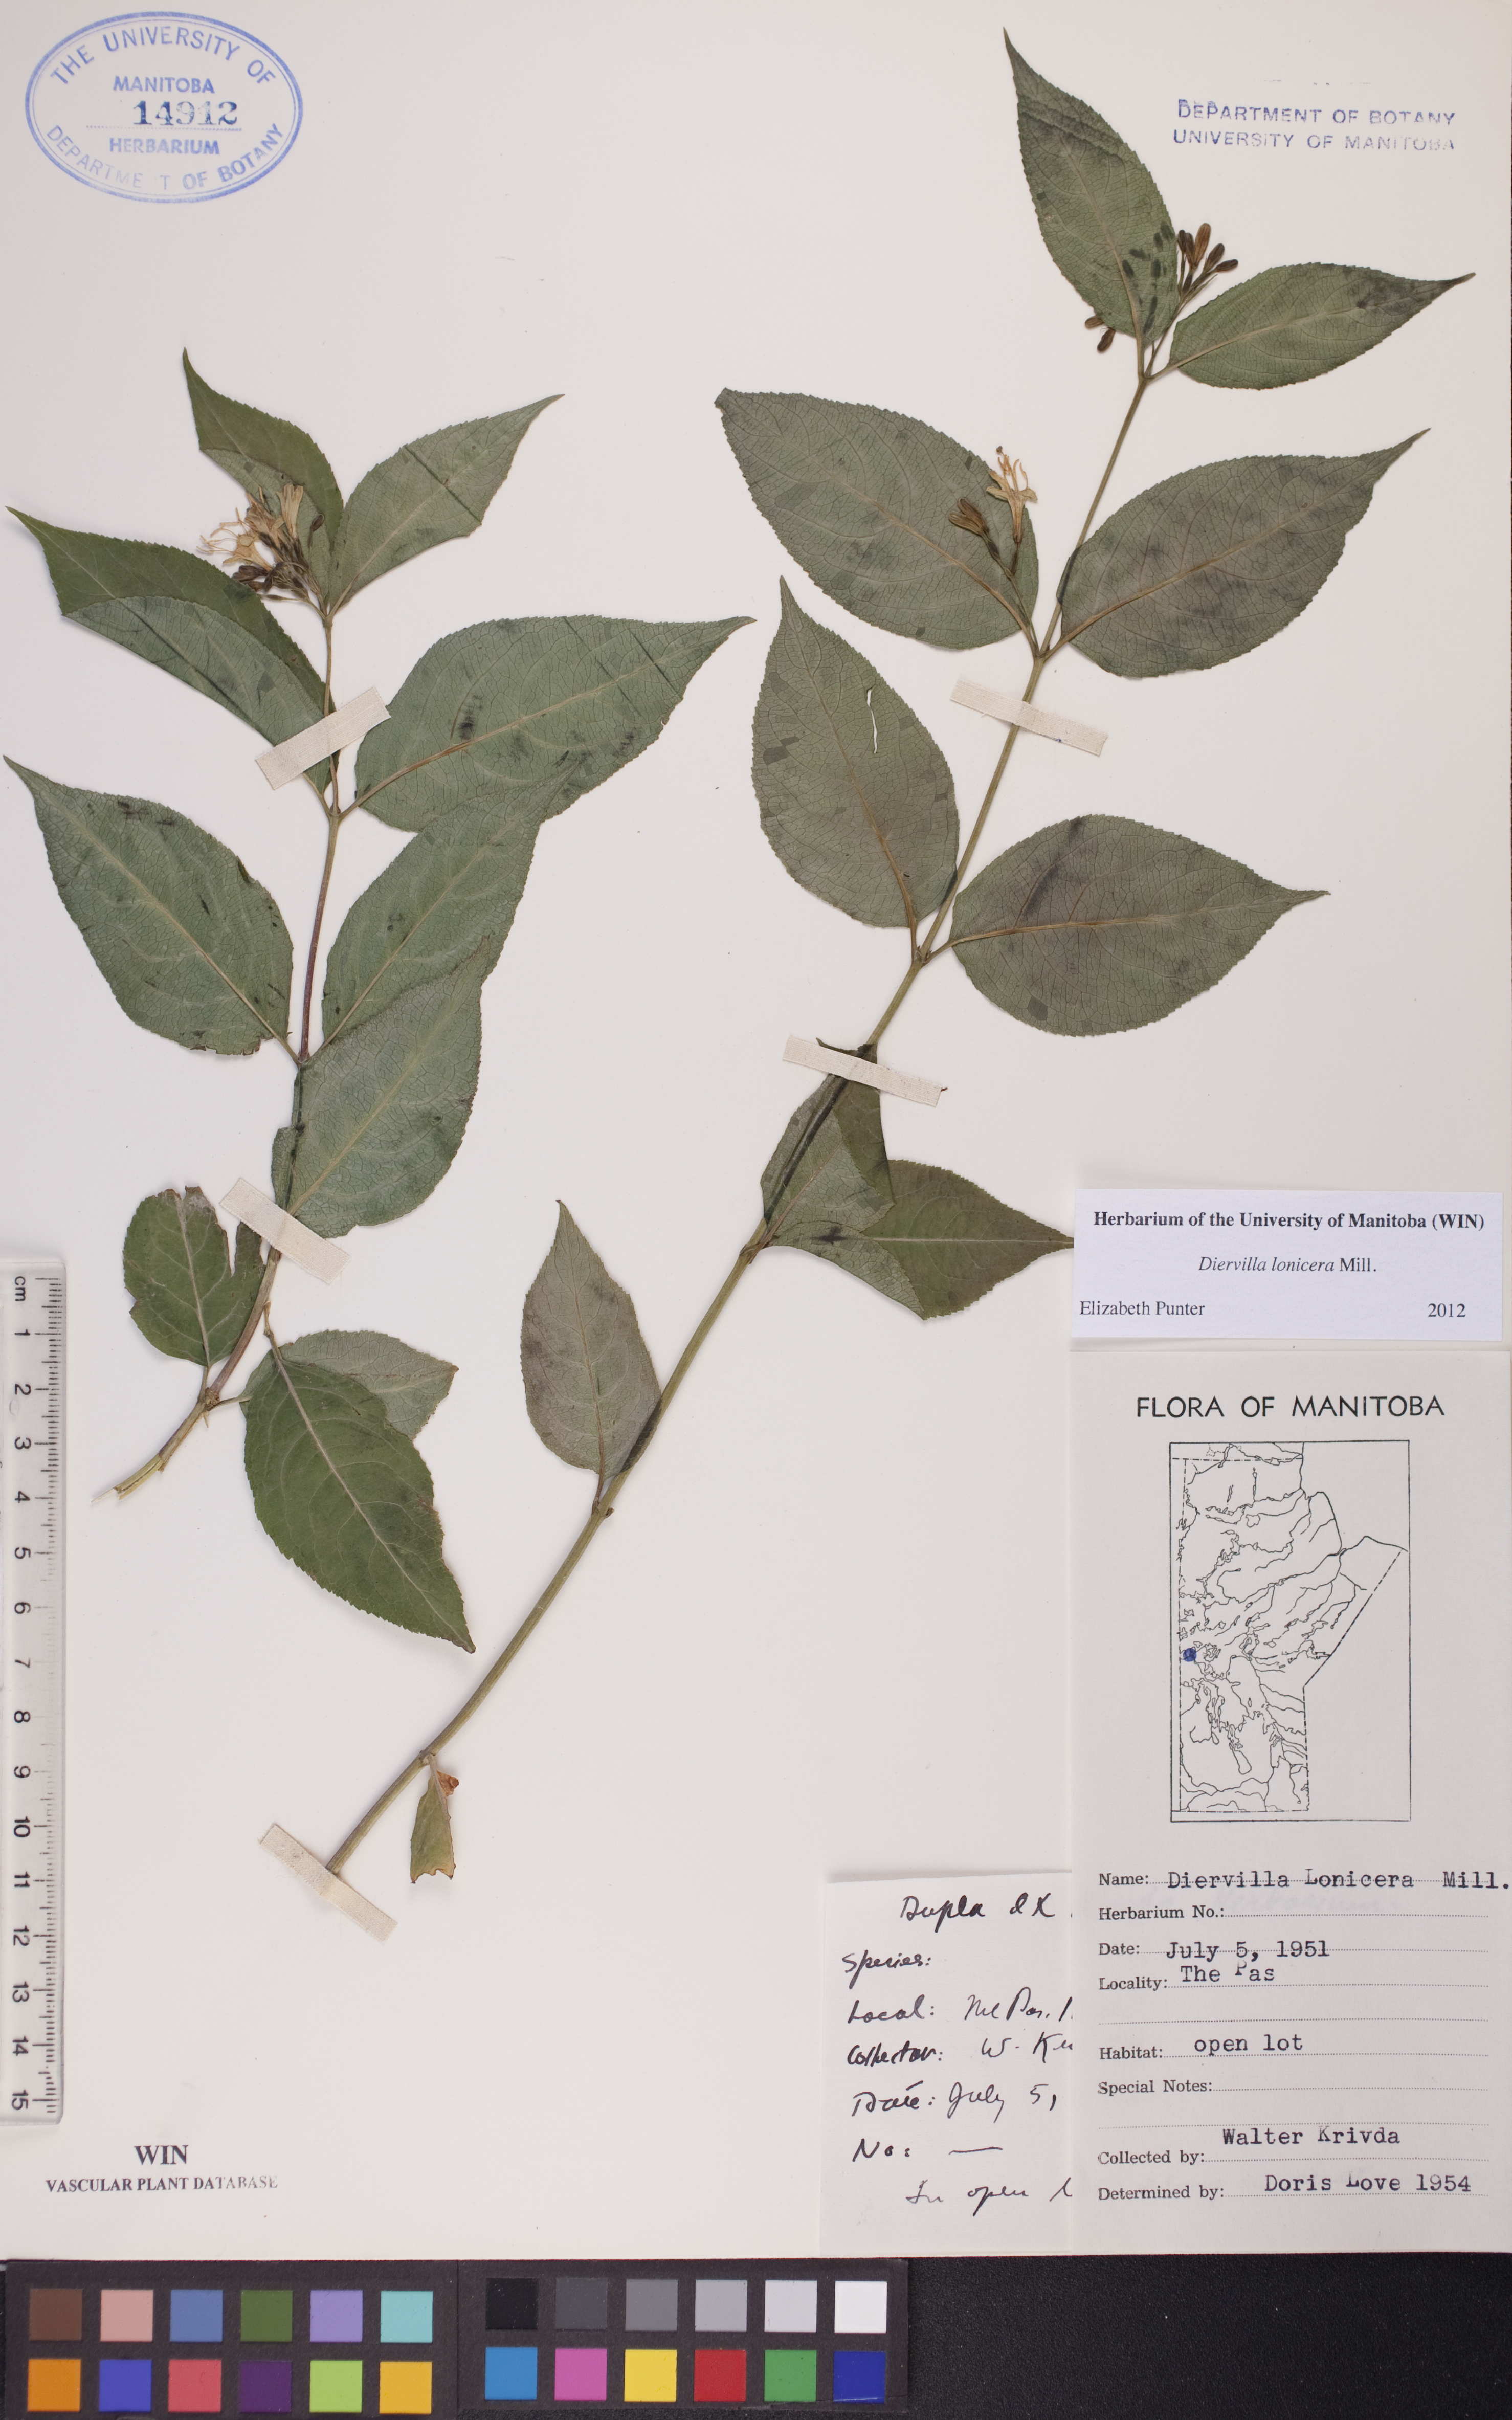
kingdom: Plantae
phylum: Tracheophyta
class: Magnoliopsida
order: Dipsacales
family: Caprifoliaceae
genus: Diervilla
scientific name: Diervilla lonicera
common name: Bush-honeysuckle
